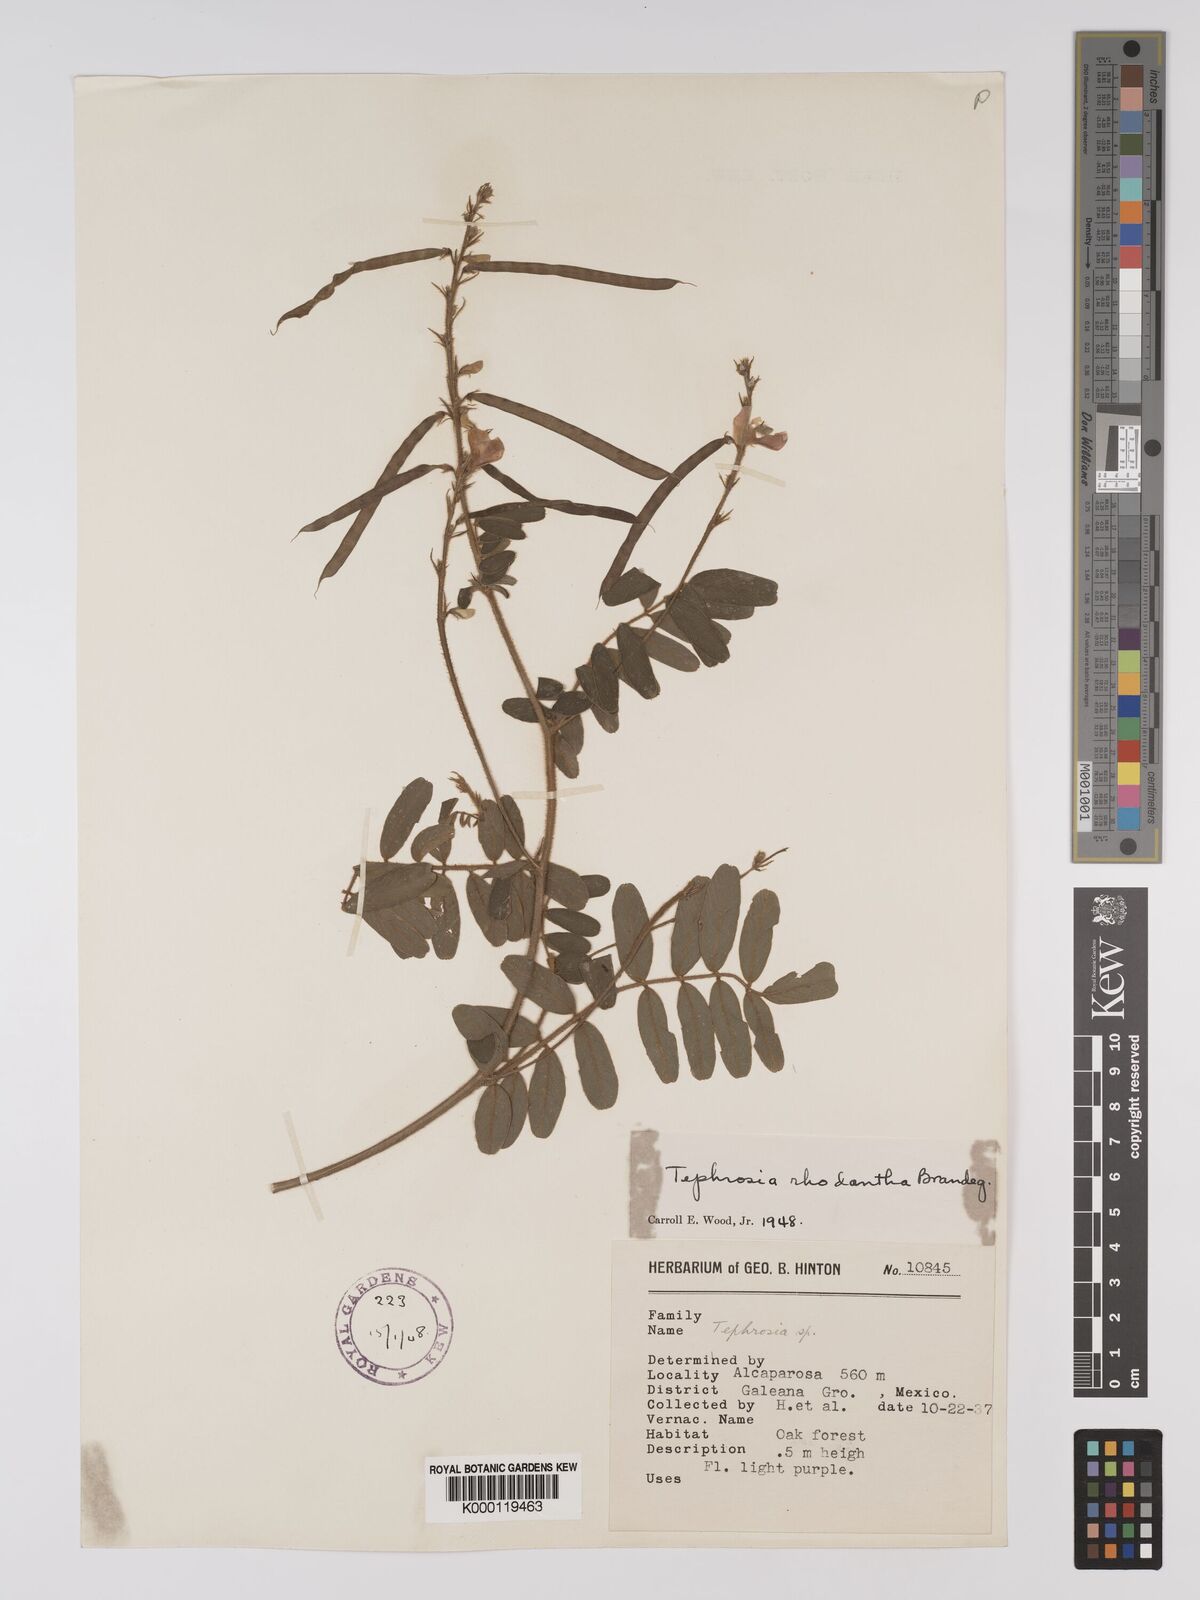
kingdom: Plantae
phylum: Tracheophyta
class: Magnoliopsida
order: Fabales
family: Fabaceae
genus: Tephrosia
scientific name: Tephrosia rhodantha
